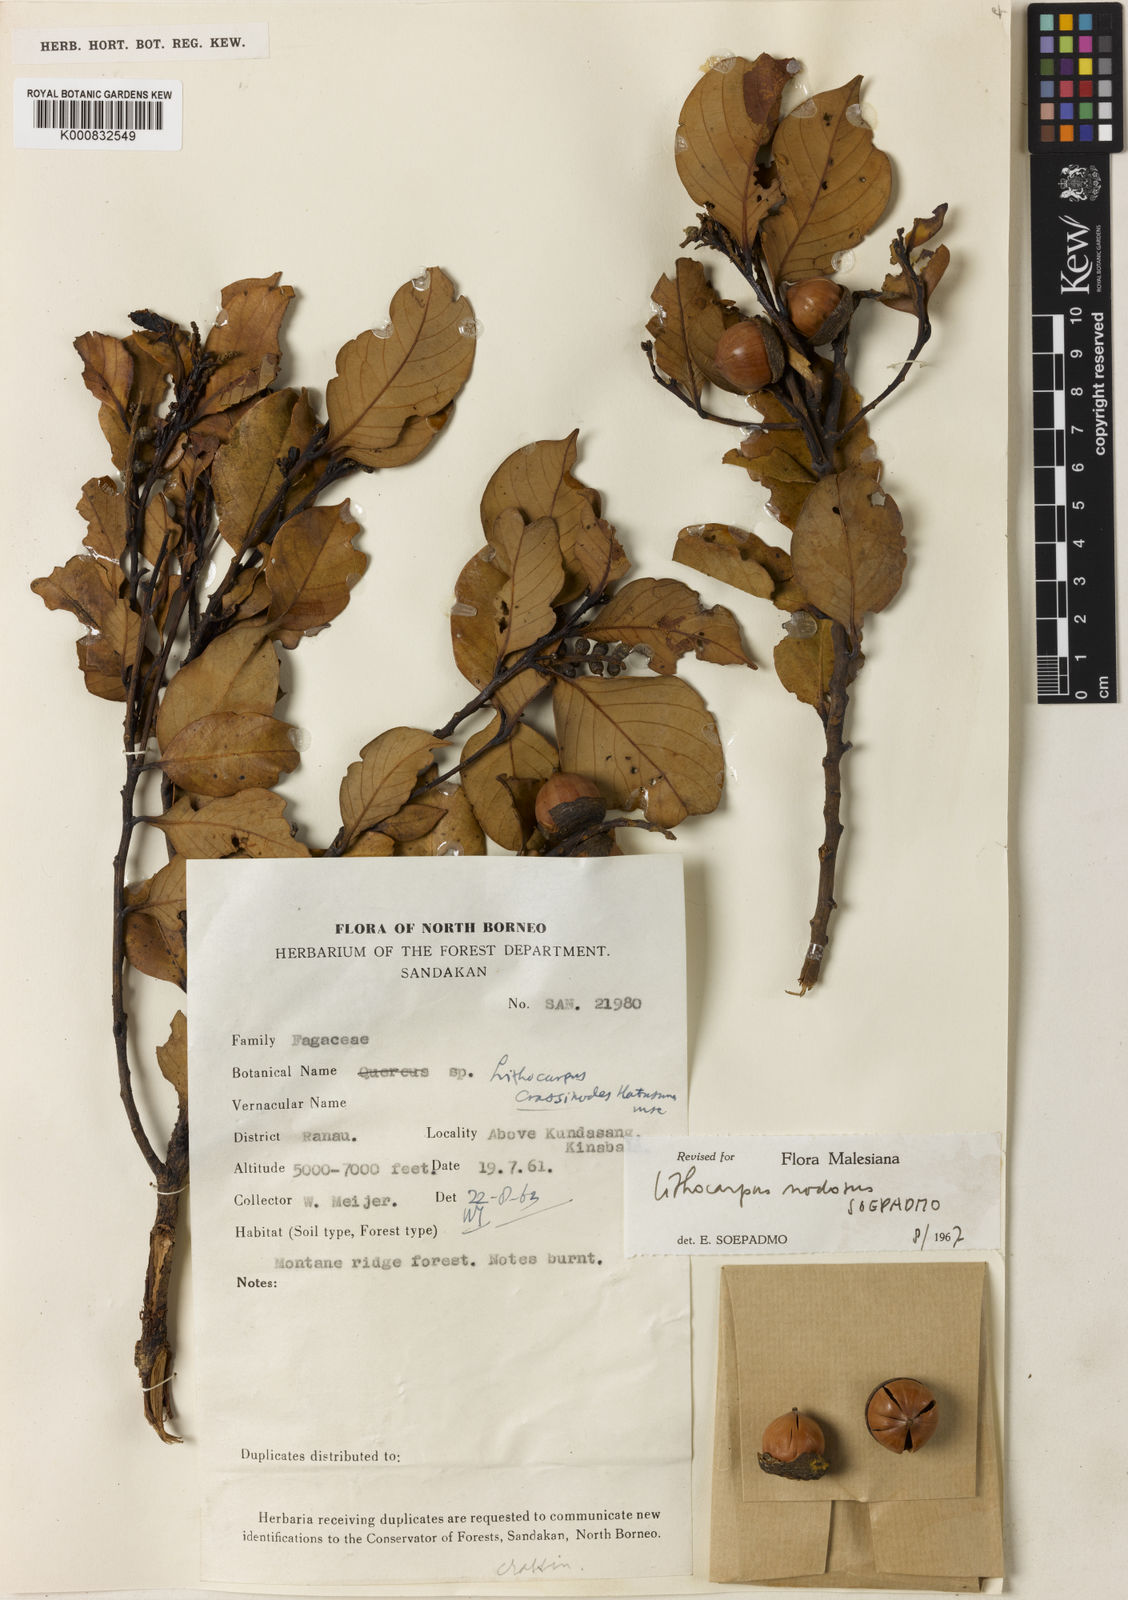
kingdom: Plantae
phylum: Tracheophyta
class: Magnoliopsida
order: Fagales
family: Fagaceae
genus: Lithocarpus
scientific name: Lithocarpus nodosus
